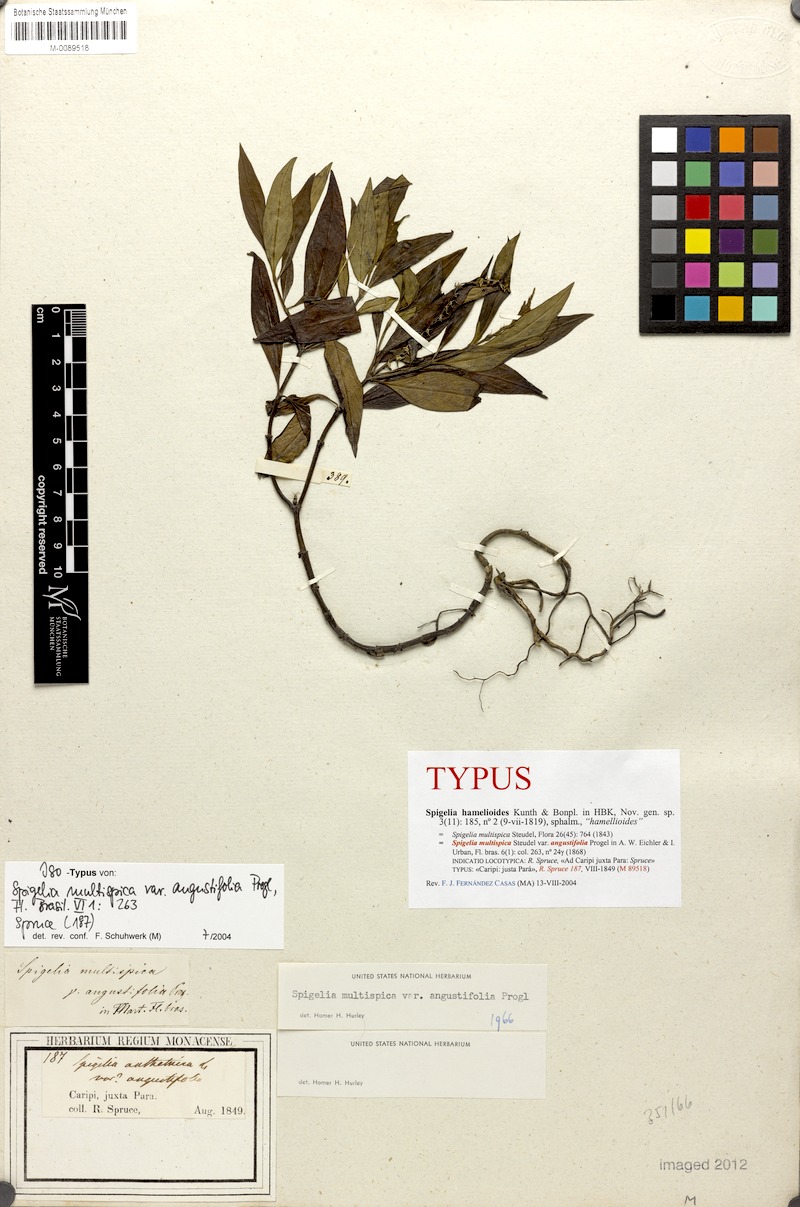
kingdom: Plantae
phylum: Tracheophyta
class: Magnoliopsida
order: Gentianales
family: Loganiaceae
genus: Spigelia
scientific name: Spigelia hamellioides
